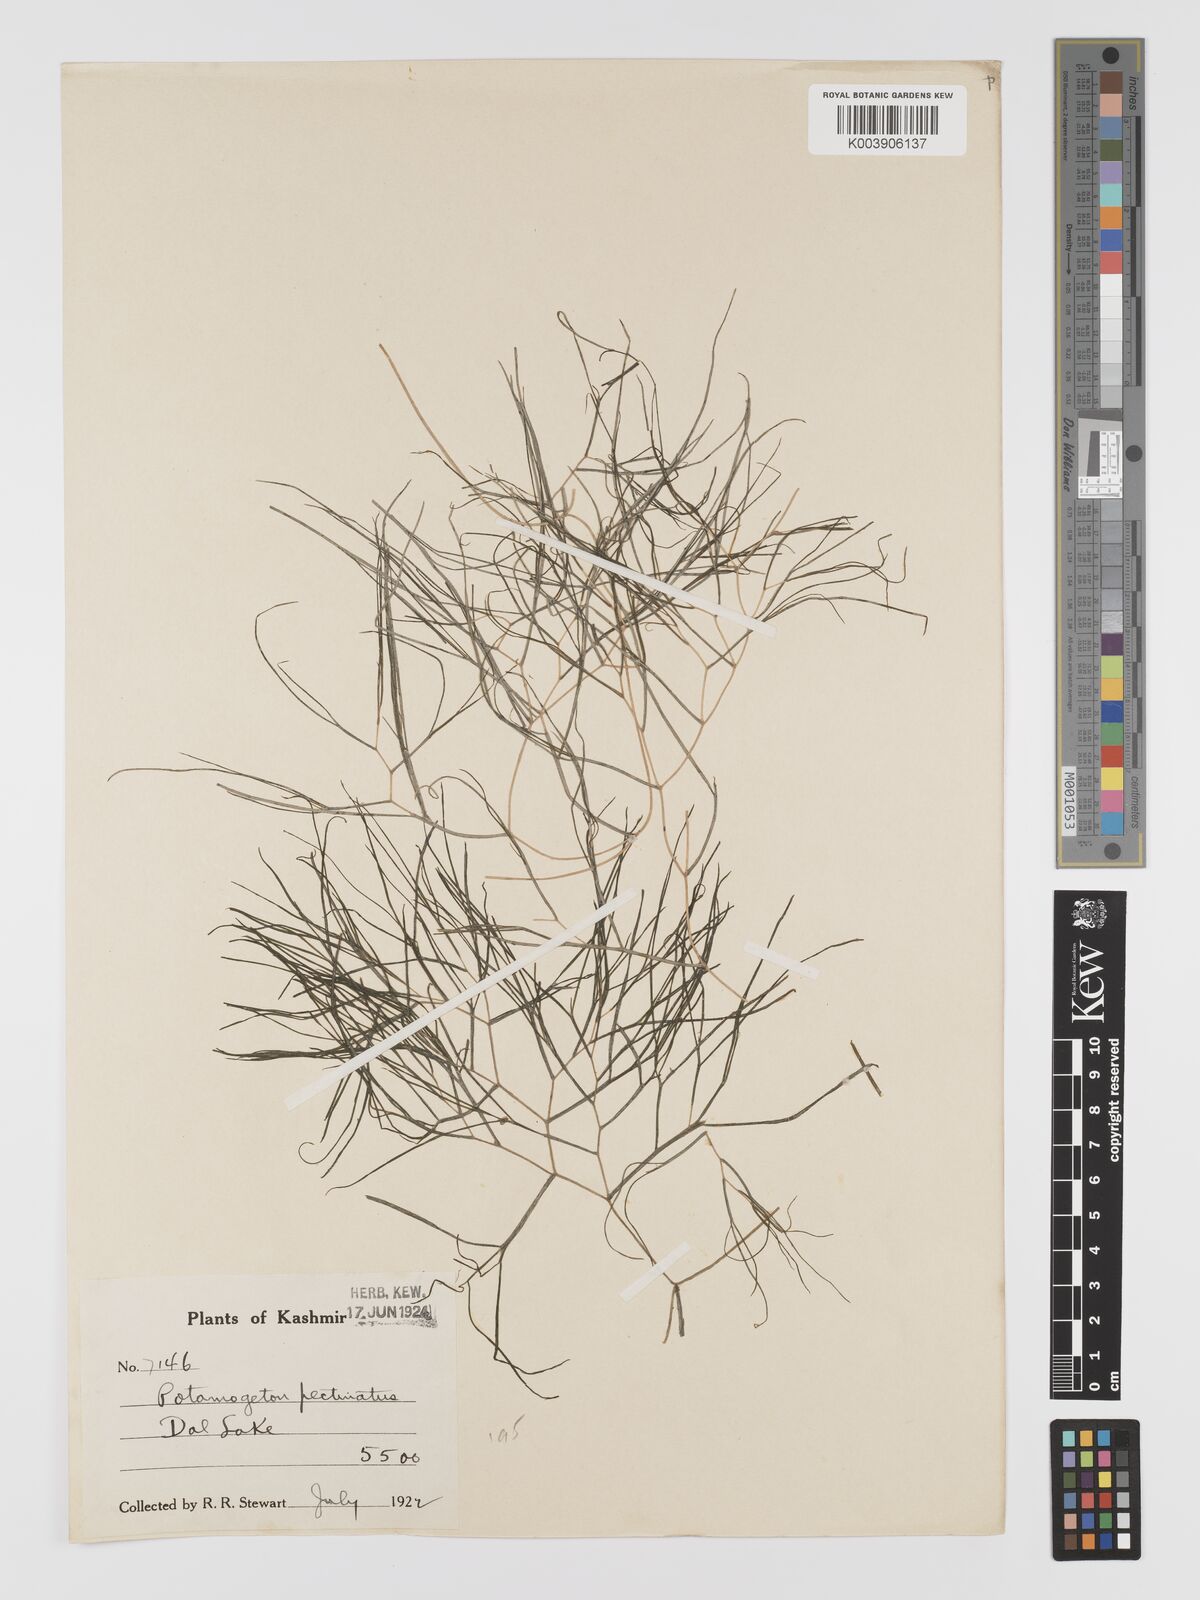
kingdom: Plantae
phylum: Tracheophyta
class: Liliopsida
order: Alismatales
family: Potamogetonaceae
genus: Stuckenia
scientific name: Stuckenia pectinata
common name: Sago pondweed
